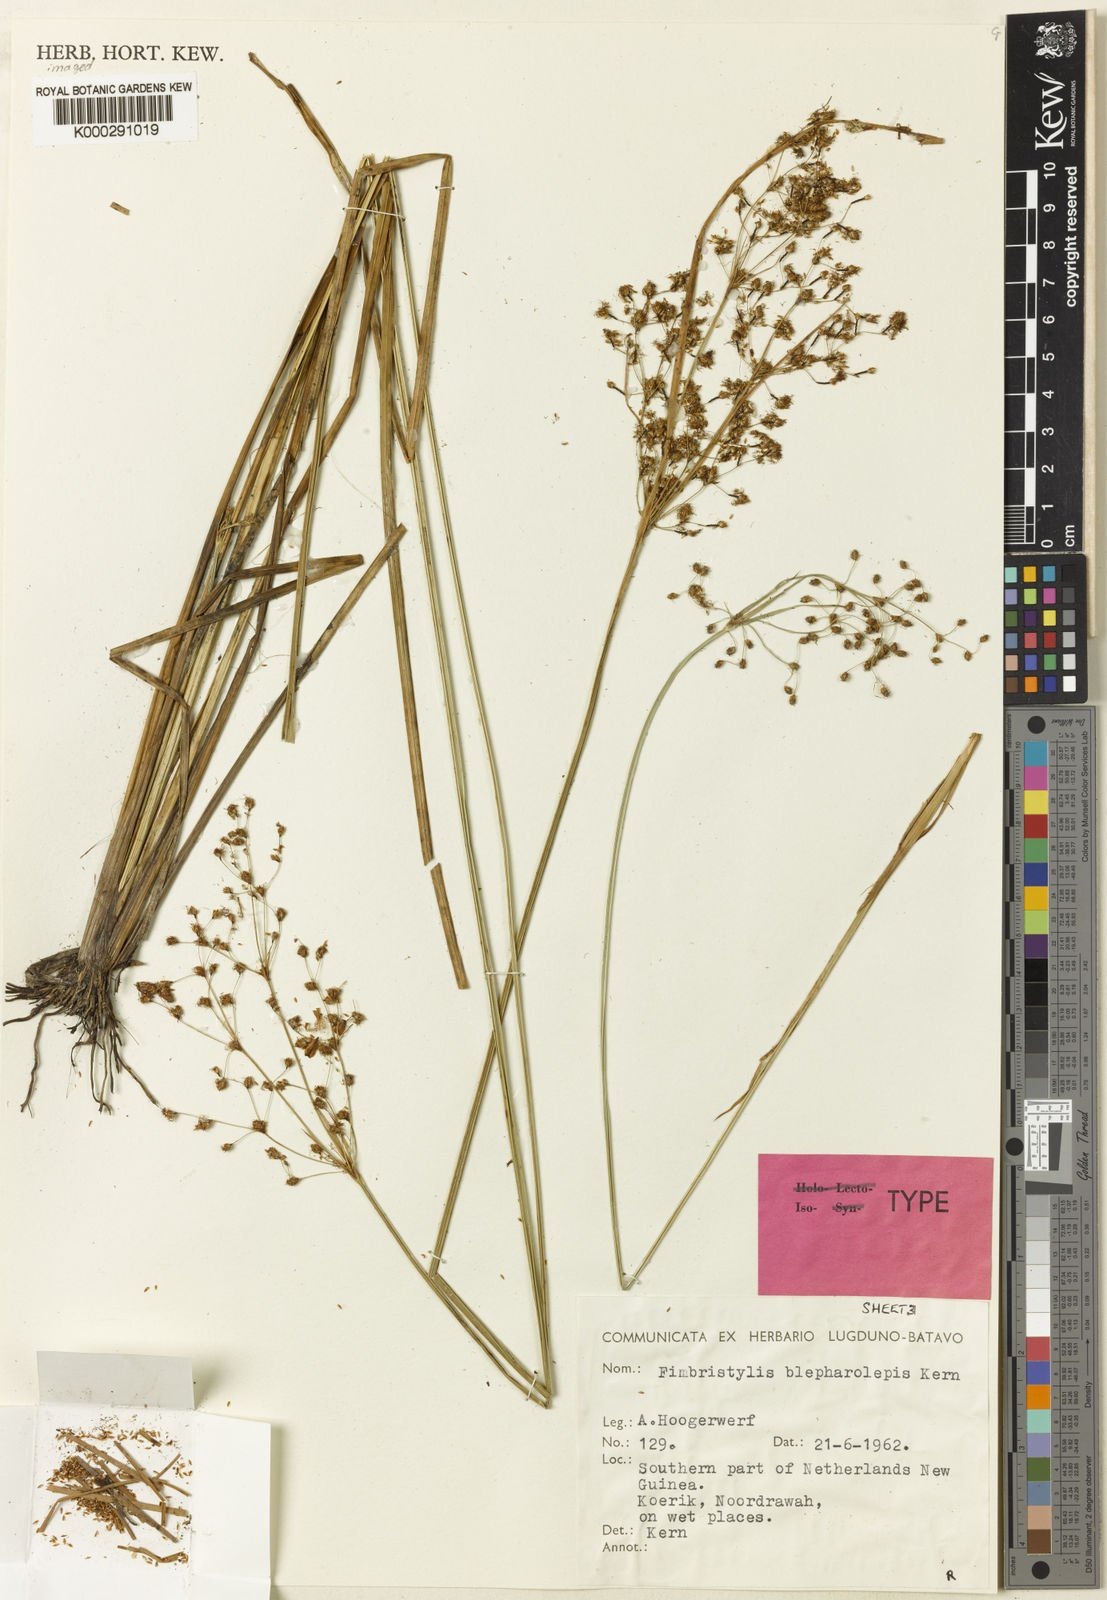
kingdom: Plantae
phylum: Tracheophyta
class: Liliopsida
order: Poales
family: Cyperaceae
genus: Fimbristylis
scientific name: Fimbristylis blepharolepis
